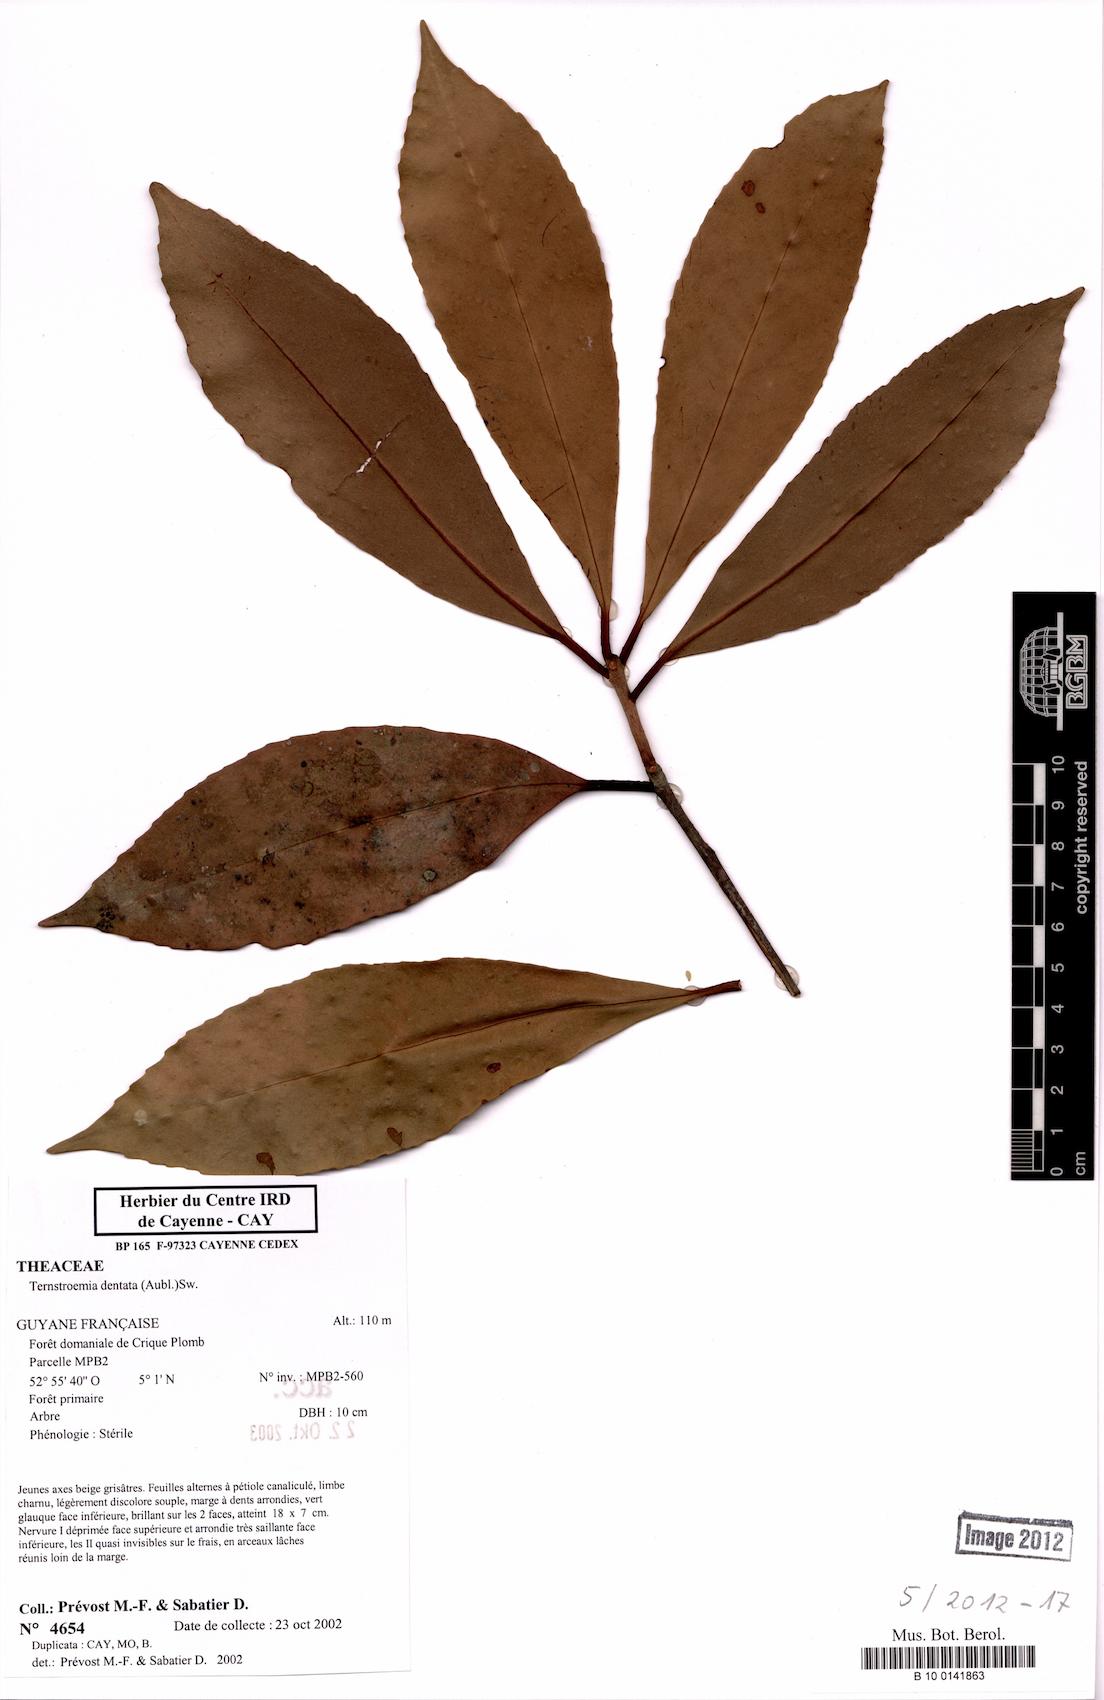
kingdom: Plantae
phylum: Tracheophyta
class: Magnoliopsida
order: Ericales
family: Pentaphylacaceae
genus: Ternstroemia
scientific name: Ternstroemia dentata
